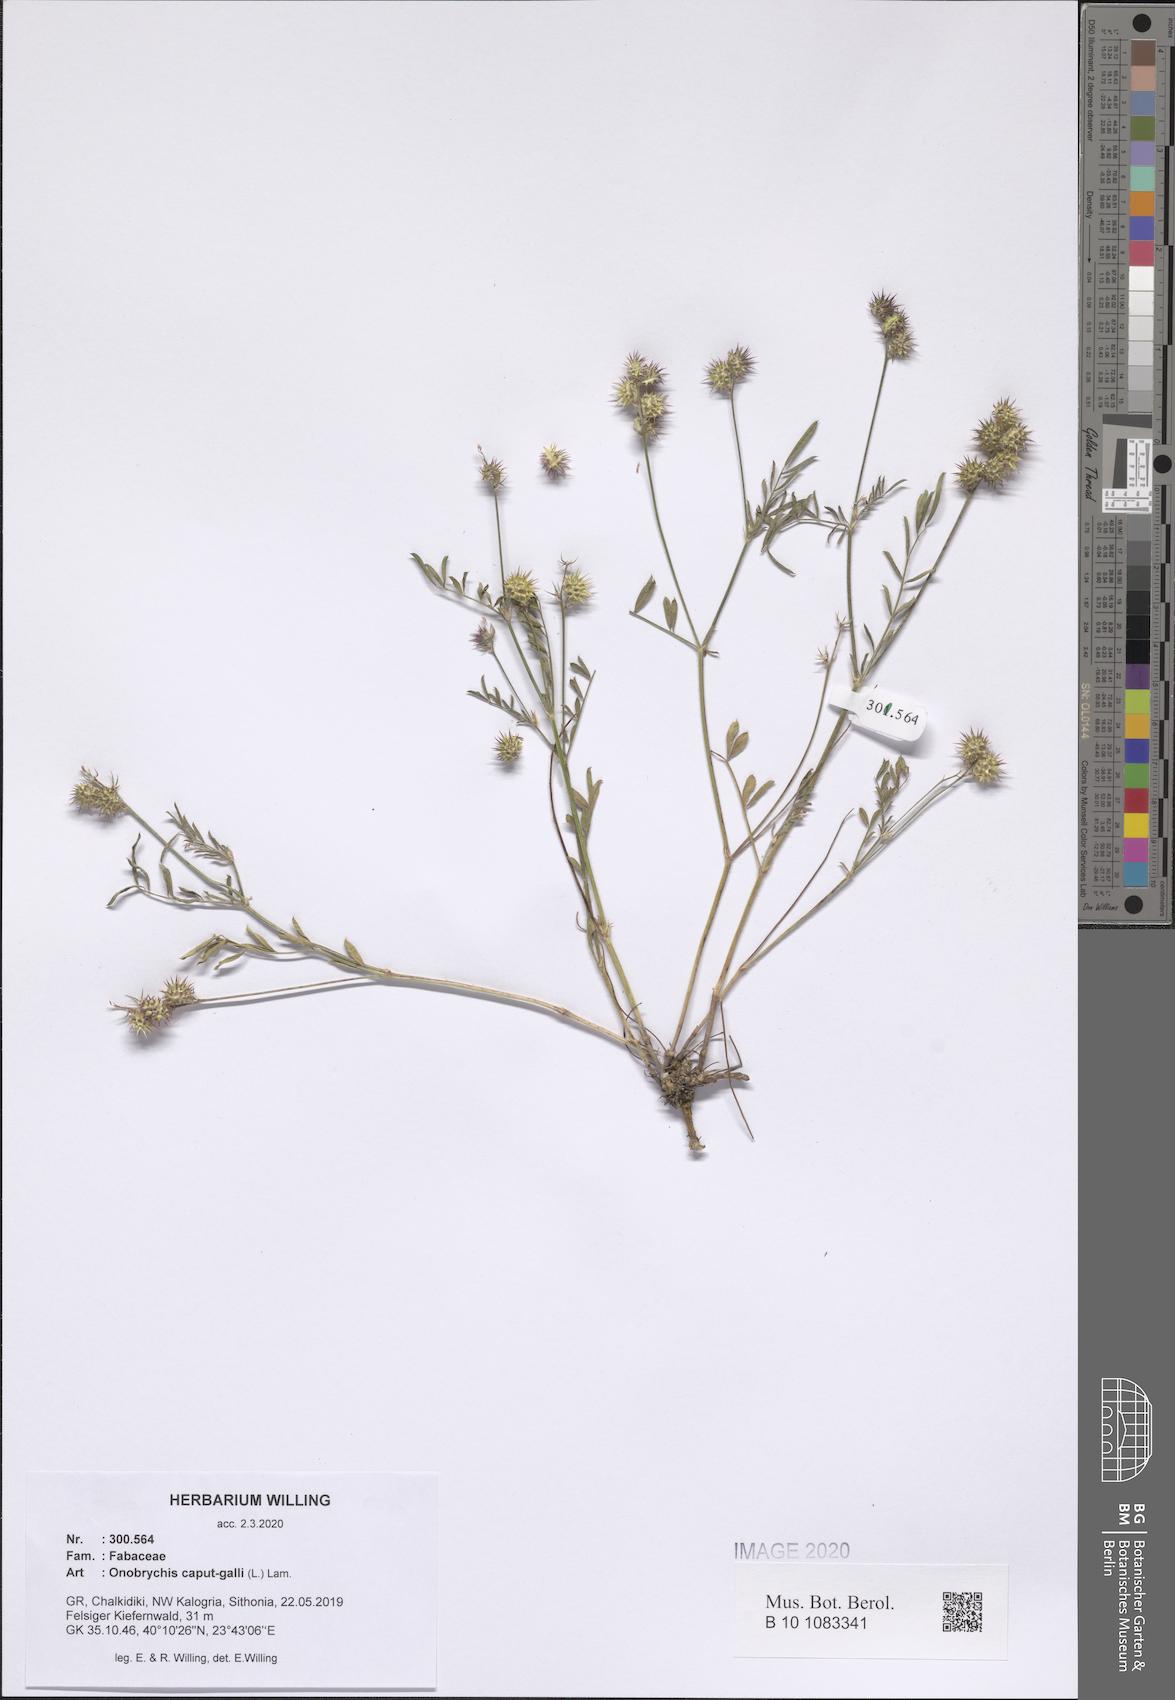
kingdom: Plantae
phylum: Tracheophyta
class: Magnoliopsida
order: Fabales
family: Fabaceae
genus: Onobrychis
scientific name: Onobrychis caput-galli
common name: Cockscomb sainfoin
